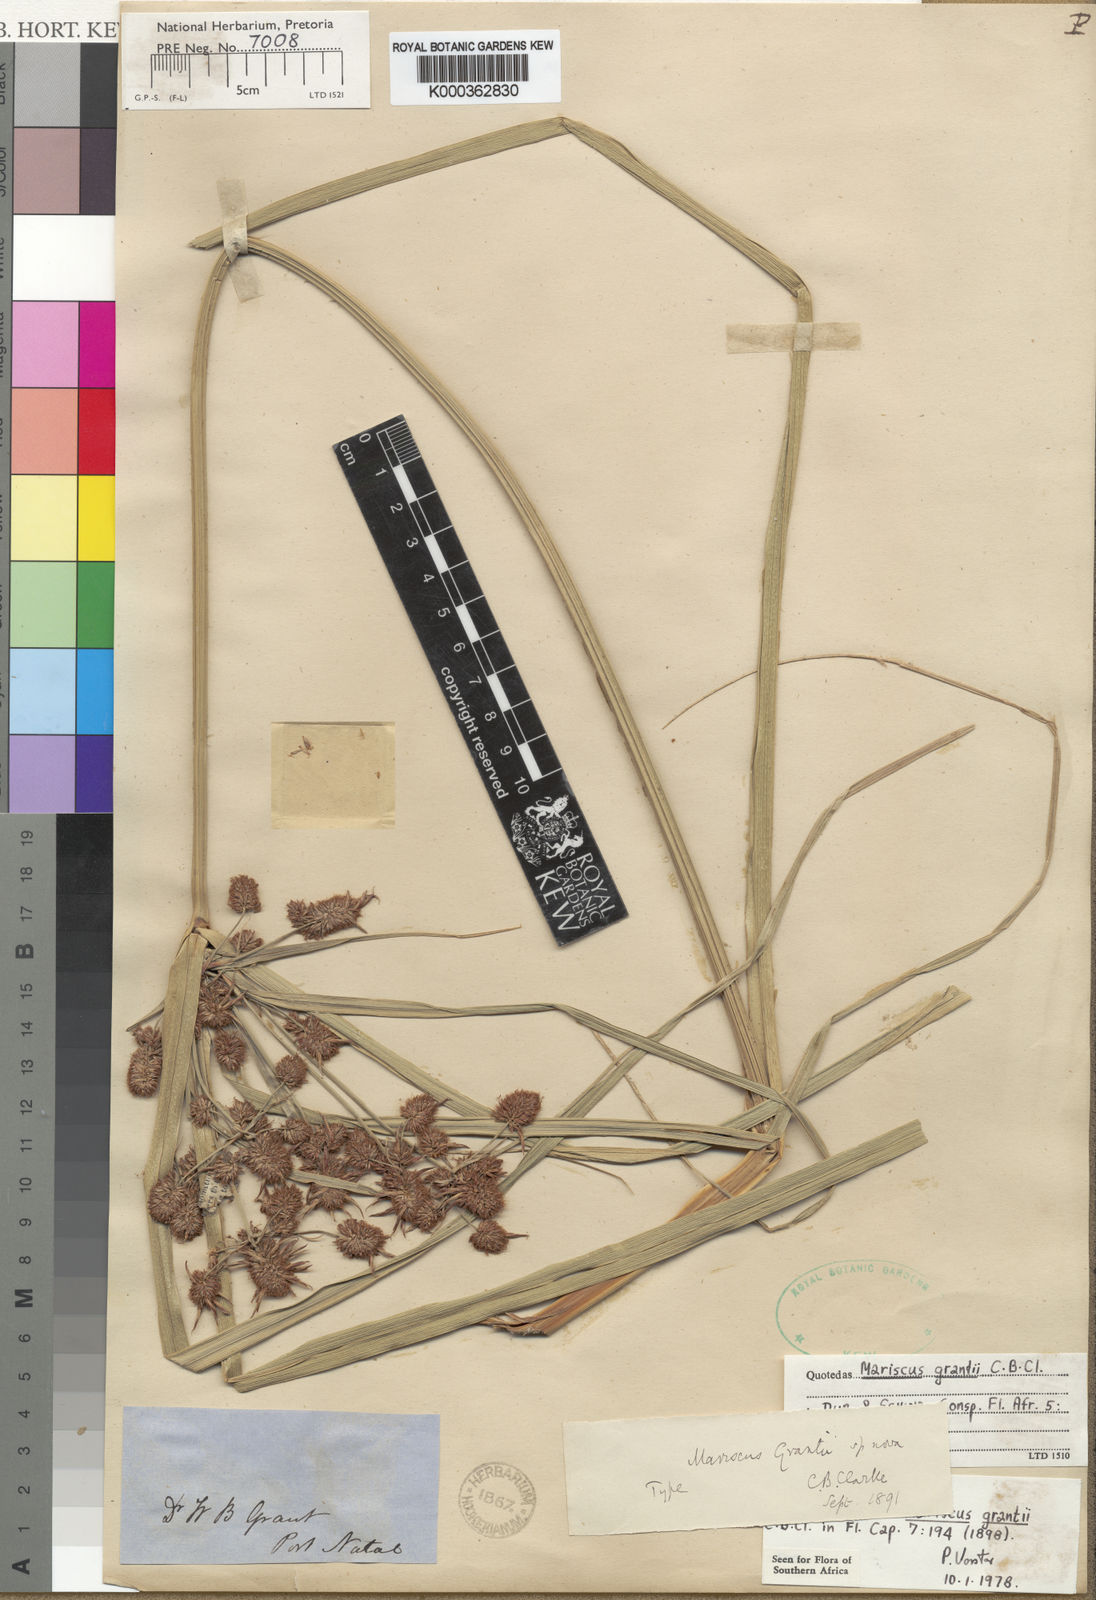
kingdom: Plantae
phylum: Tracheophyta
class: Liliopsida
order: Poales
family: Cyperaceae
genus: Cyperus
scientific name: Cyperus owanii
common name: Owan's flatsedge
